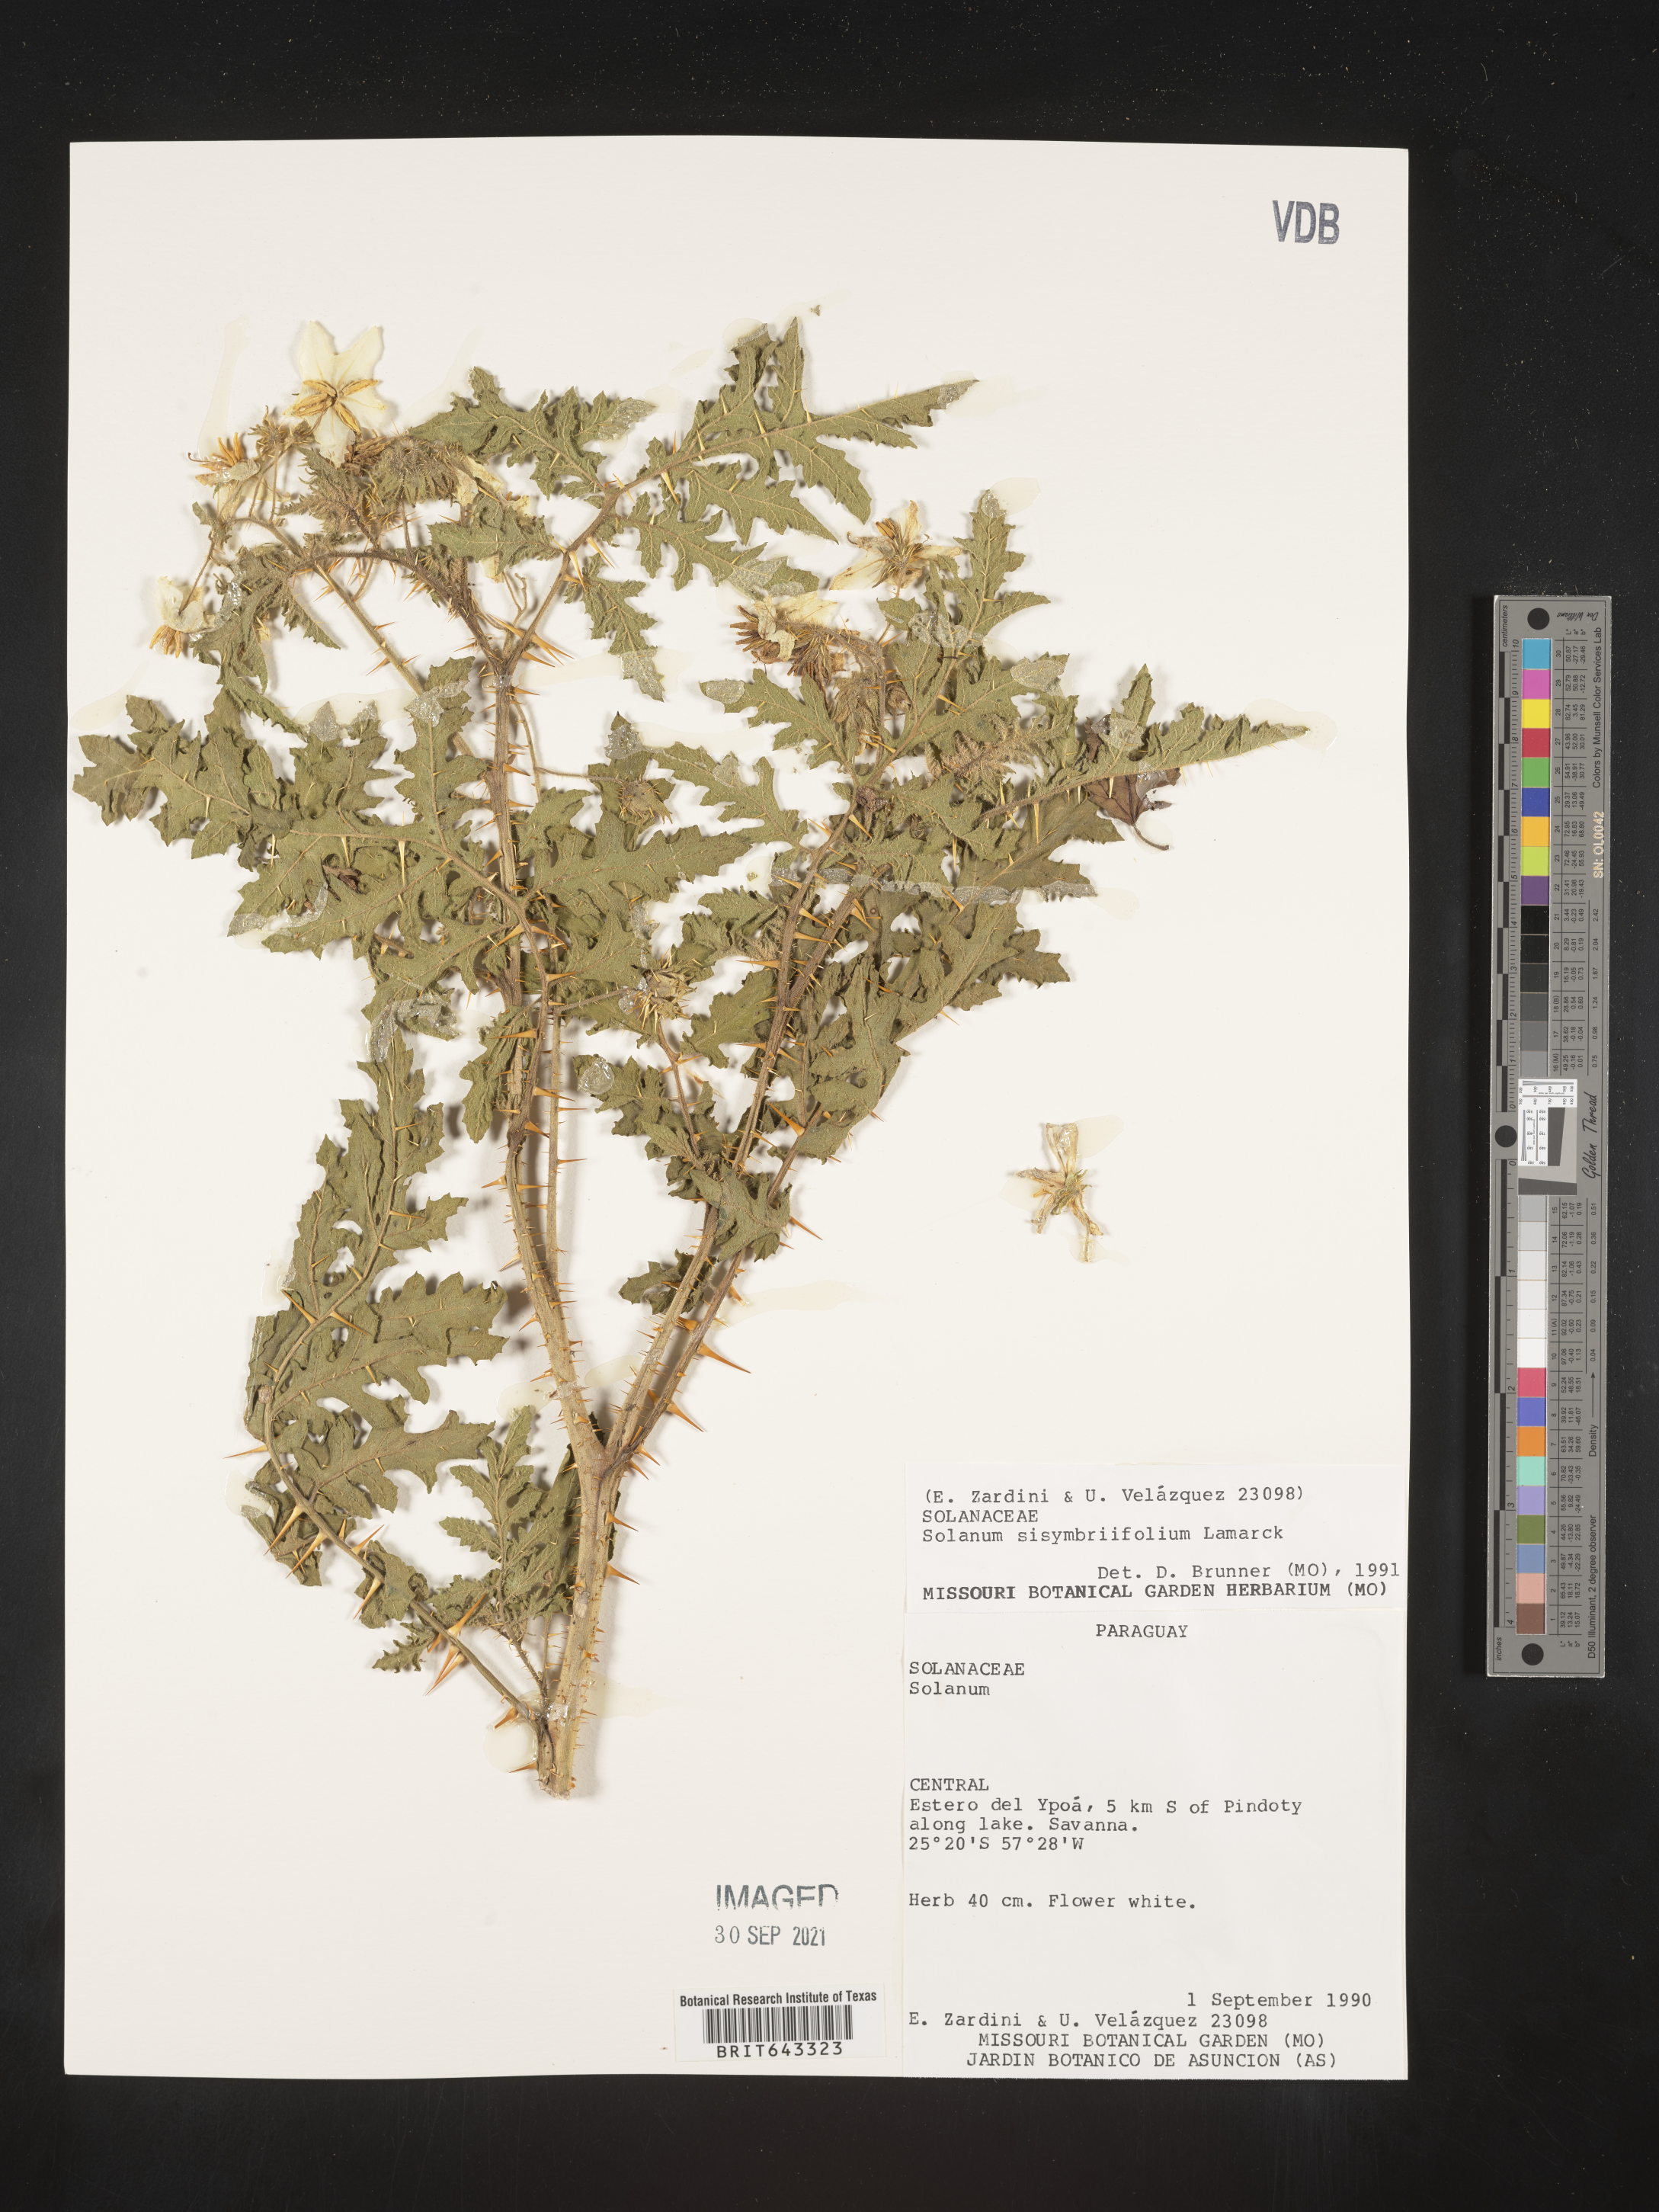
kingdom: Plantae
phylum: Tracheophyta
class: Magnoliopsida
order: Solanales
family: Solanaceae
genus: Solanum
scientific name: Solanum
